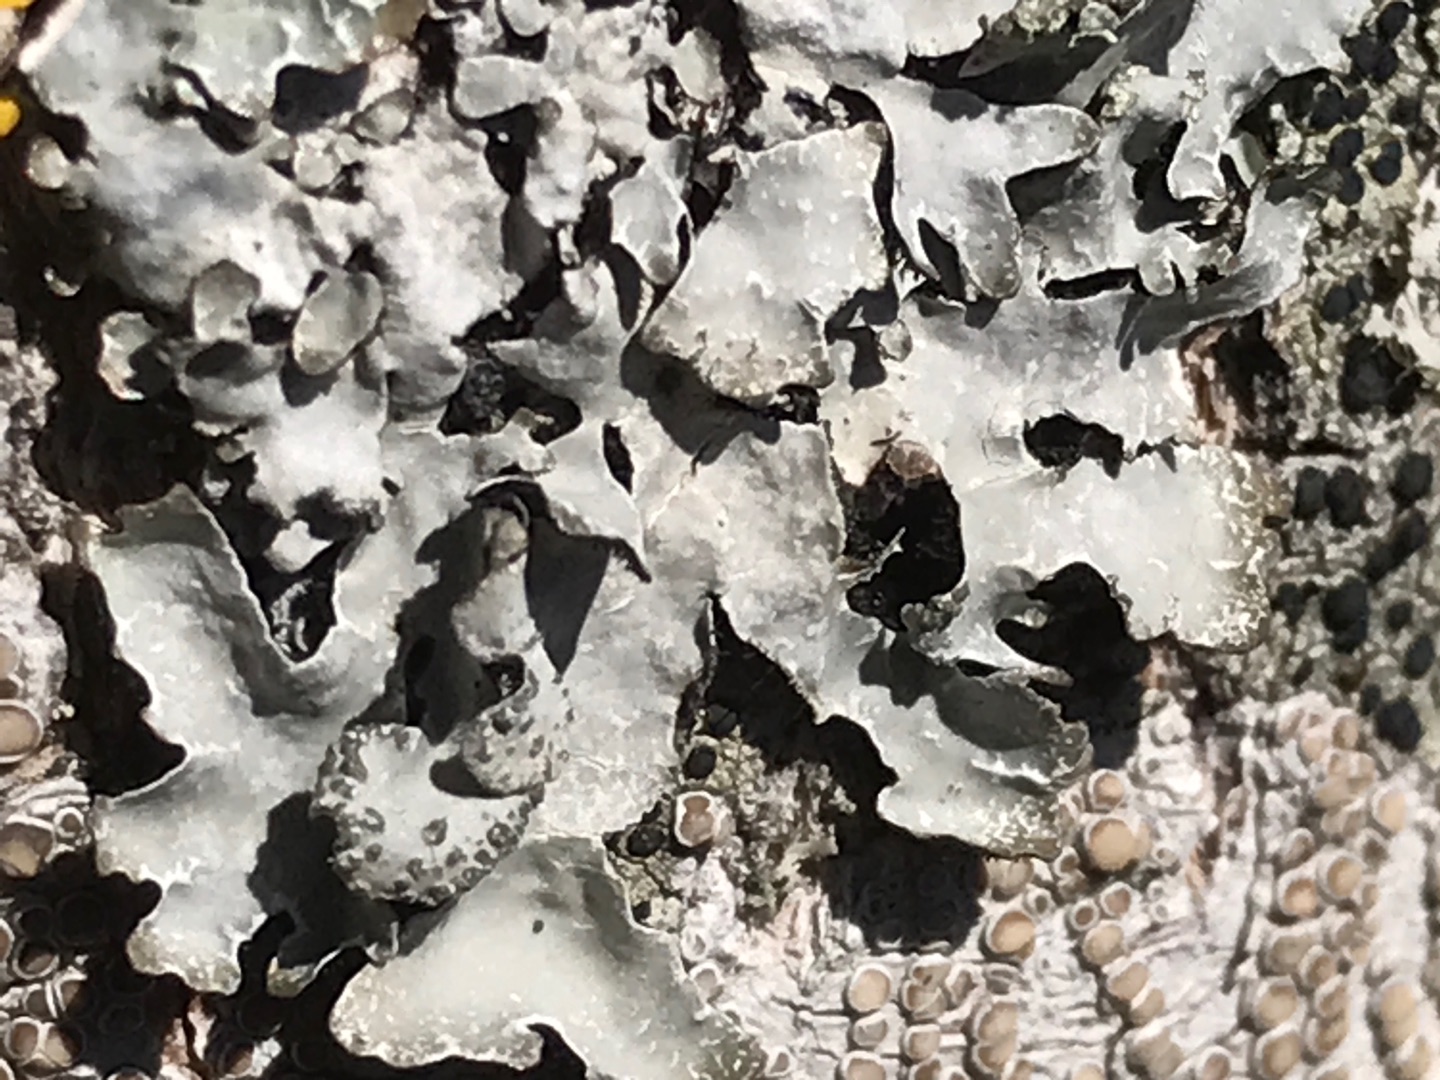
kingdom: Fungi
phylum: Ascomycota
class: Lecanoromycetes
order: Lecanorales
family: Parmeliaceae
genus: Parmelia
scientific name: Parmelia sulcata
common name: Rynket skållav
